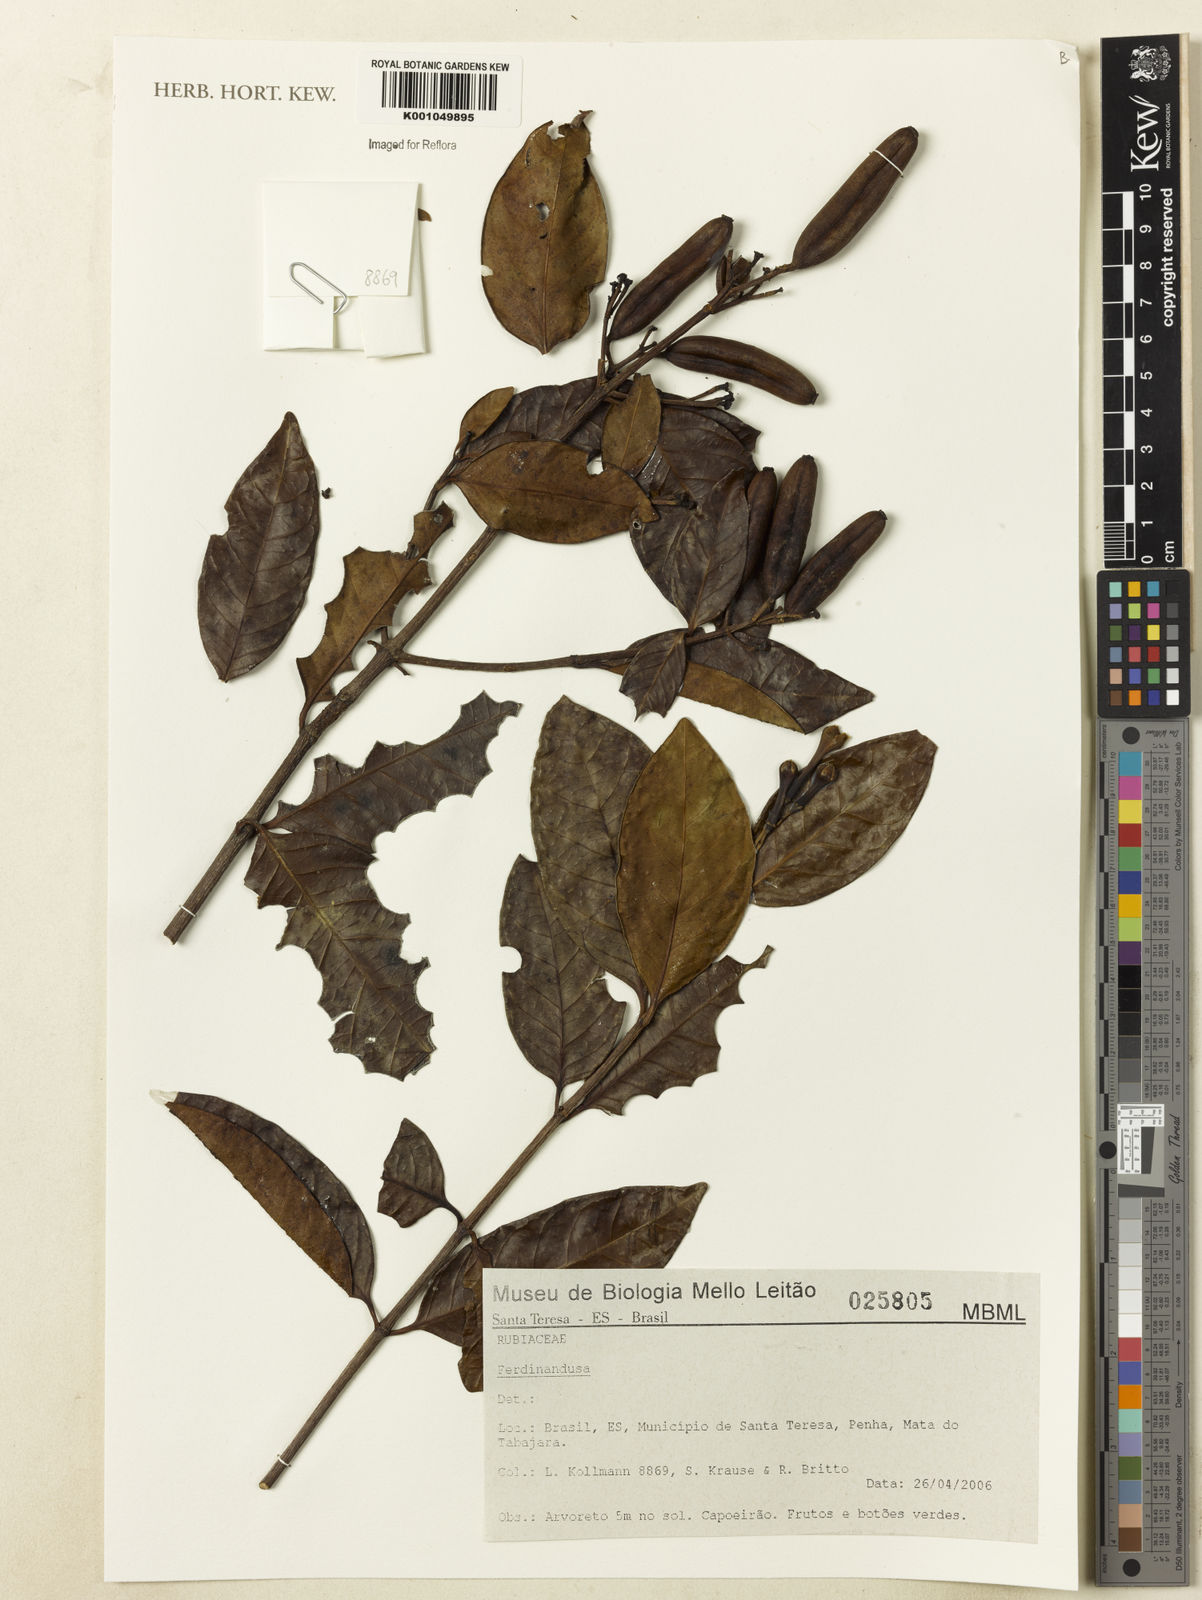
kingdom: Plantae
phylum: Tracheophyta
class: Magnoliopsida
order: Gentianales
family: Rubiaceae
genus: Ferdinandusa
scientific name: Ferdinandusa
